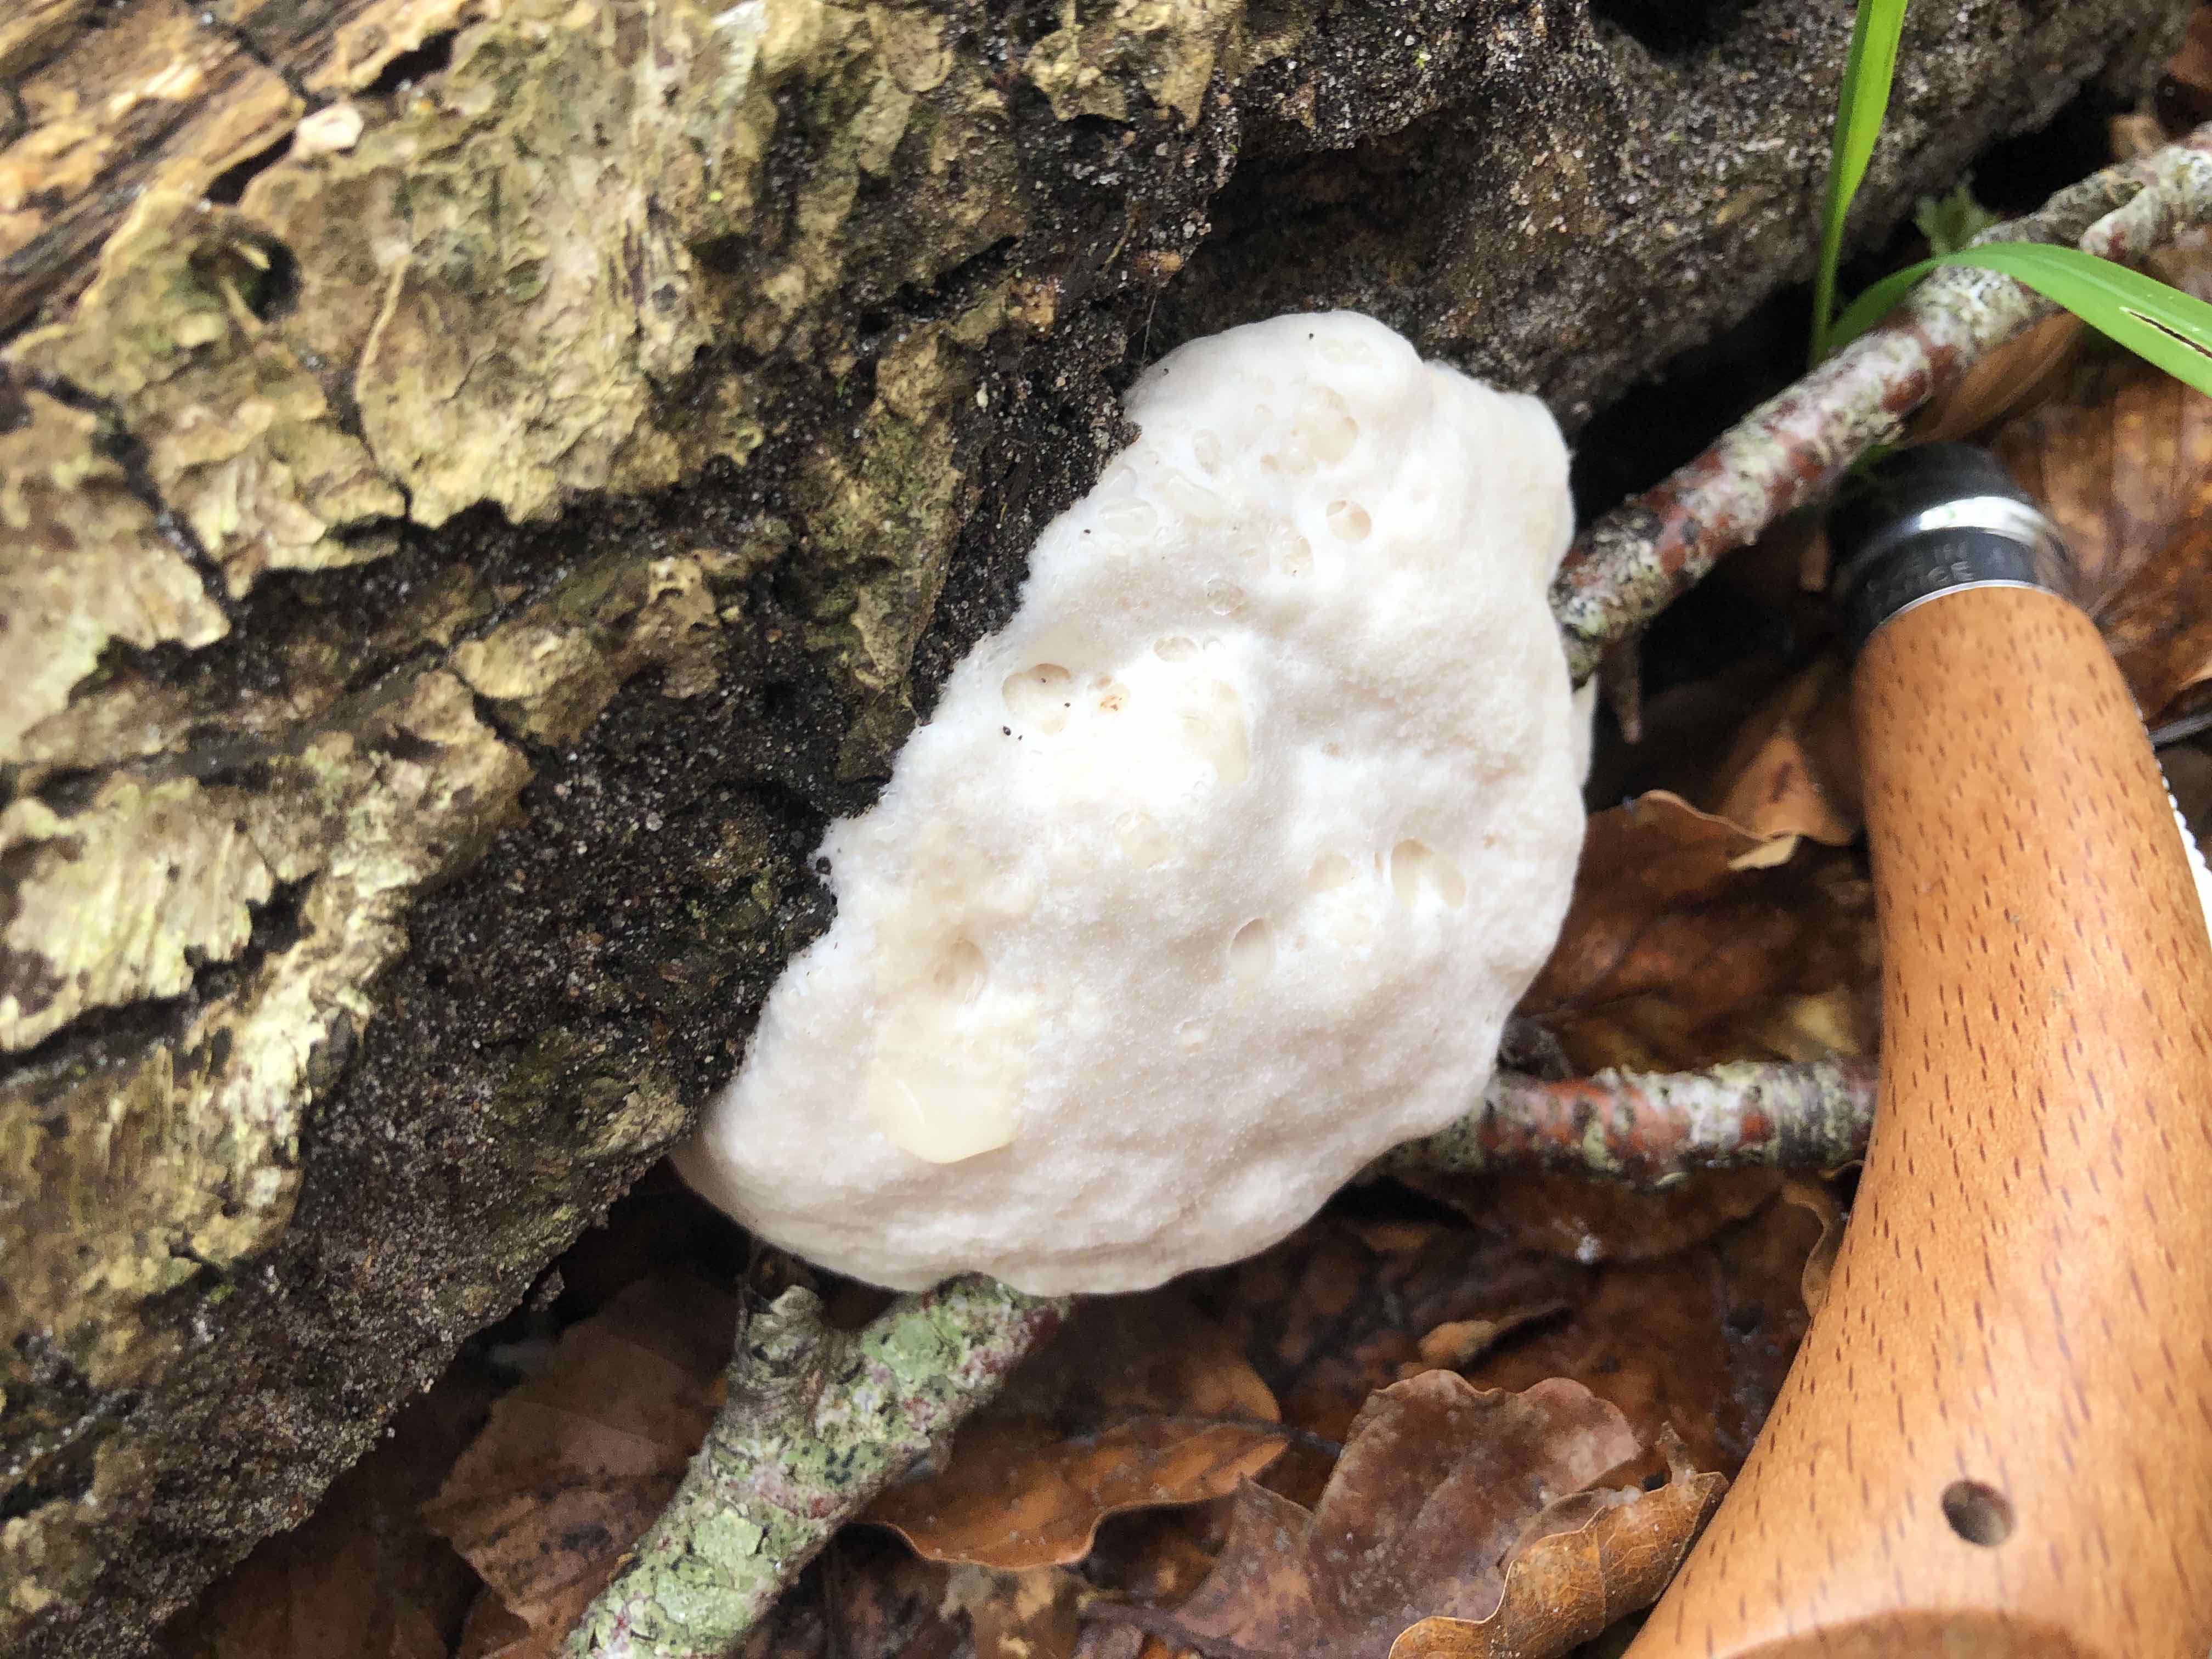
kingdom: Protozoa
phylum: Mycetozoa
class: Myxomycetes
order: Cribrariales
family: Tubiferaceae
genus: Reticularia
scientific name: Reticularia lycoperdon
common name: skinnende støvpude
